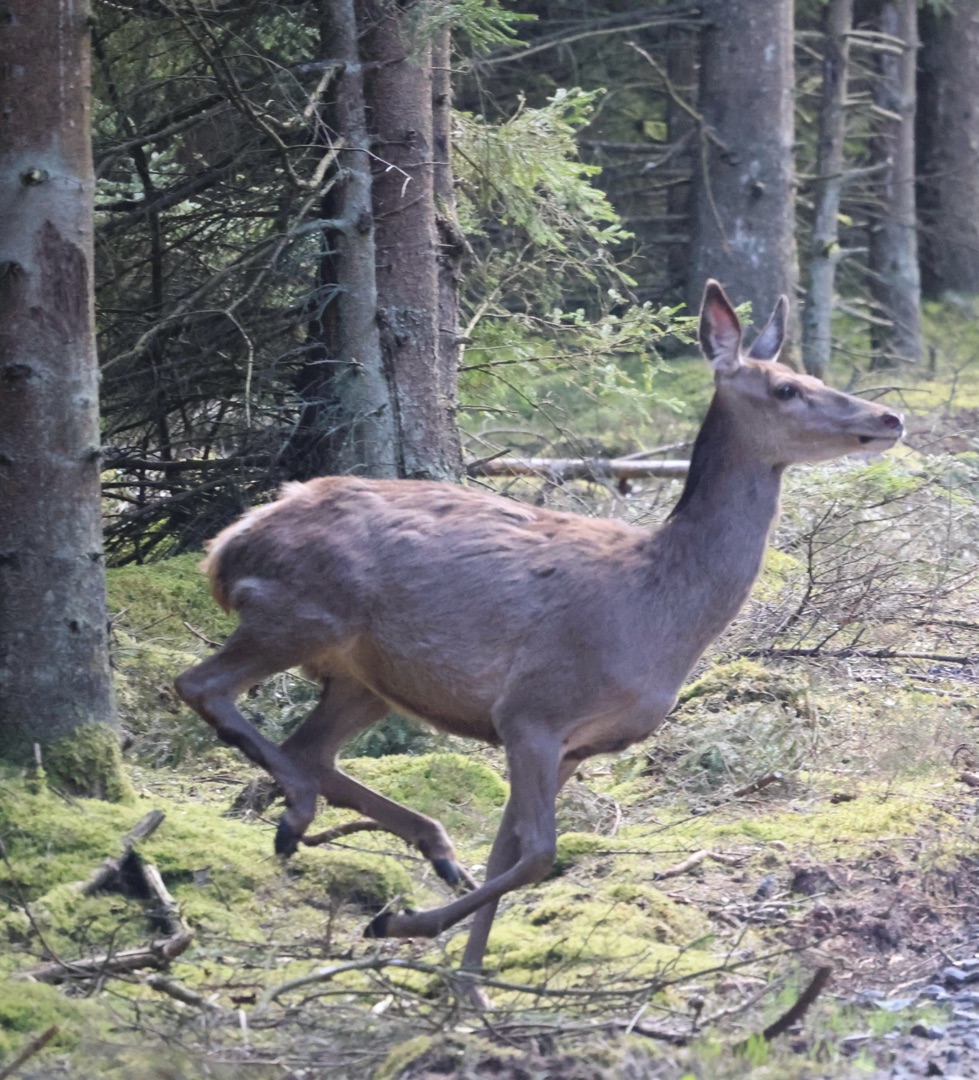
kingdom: Animalia
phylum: Chordata
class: Mammalia
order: Artiodactyla
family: Cervidae
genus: Cervus
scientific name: Cervus elaphus
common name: Krondyr
